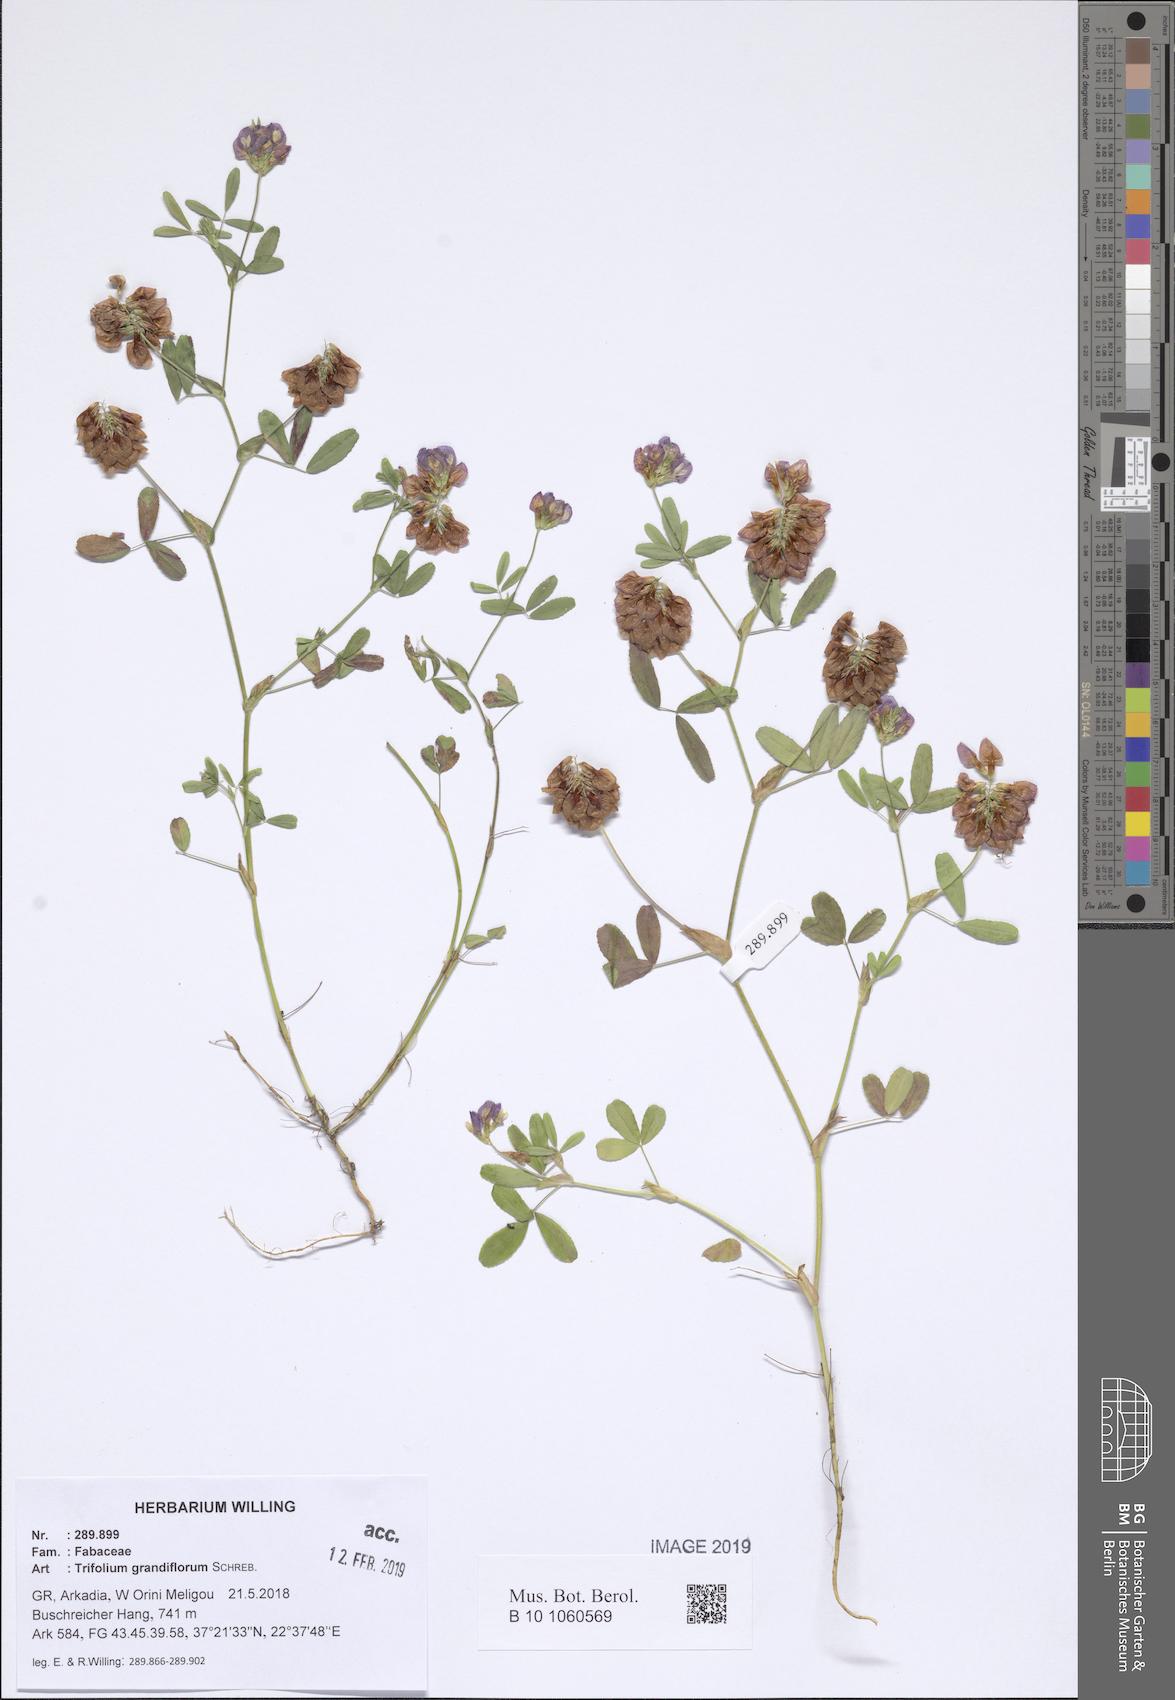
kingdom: Plantae
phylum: Tracheophyta
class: Magnoliopsida
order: Fabales
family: Fabaceae
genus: Trifolium
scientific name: Trifolium grandiflorum
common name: Large-flower hop clover
